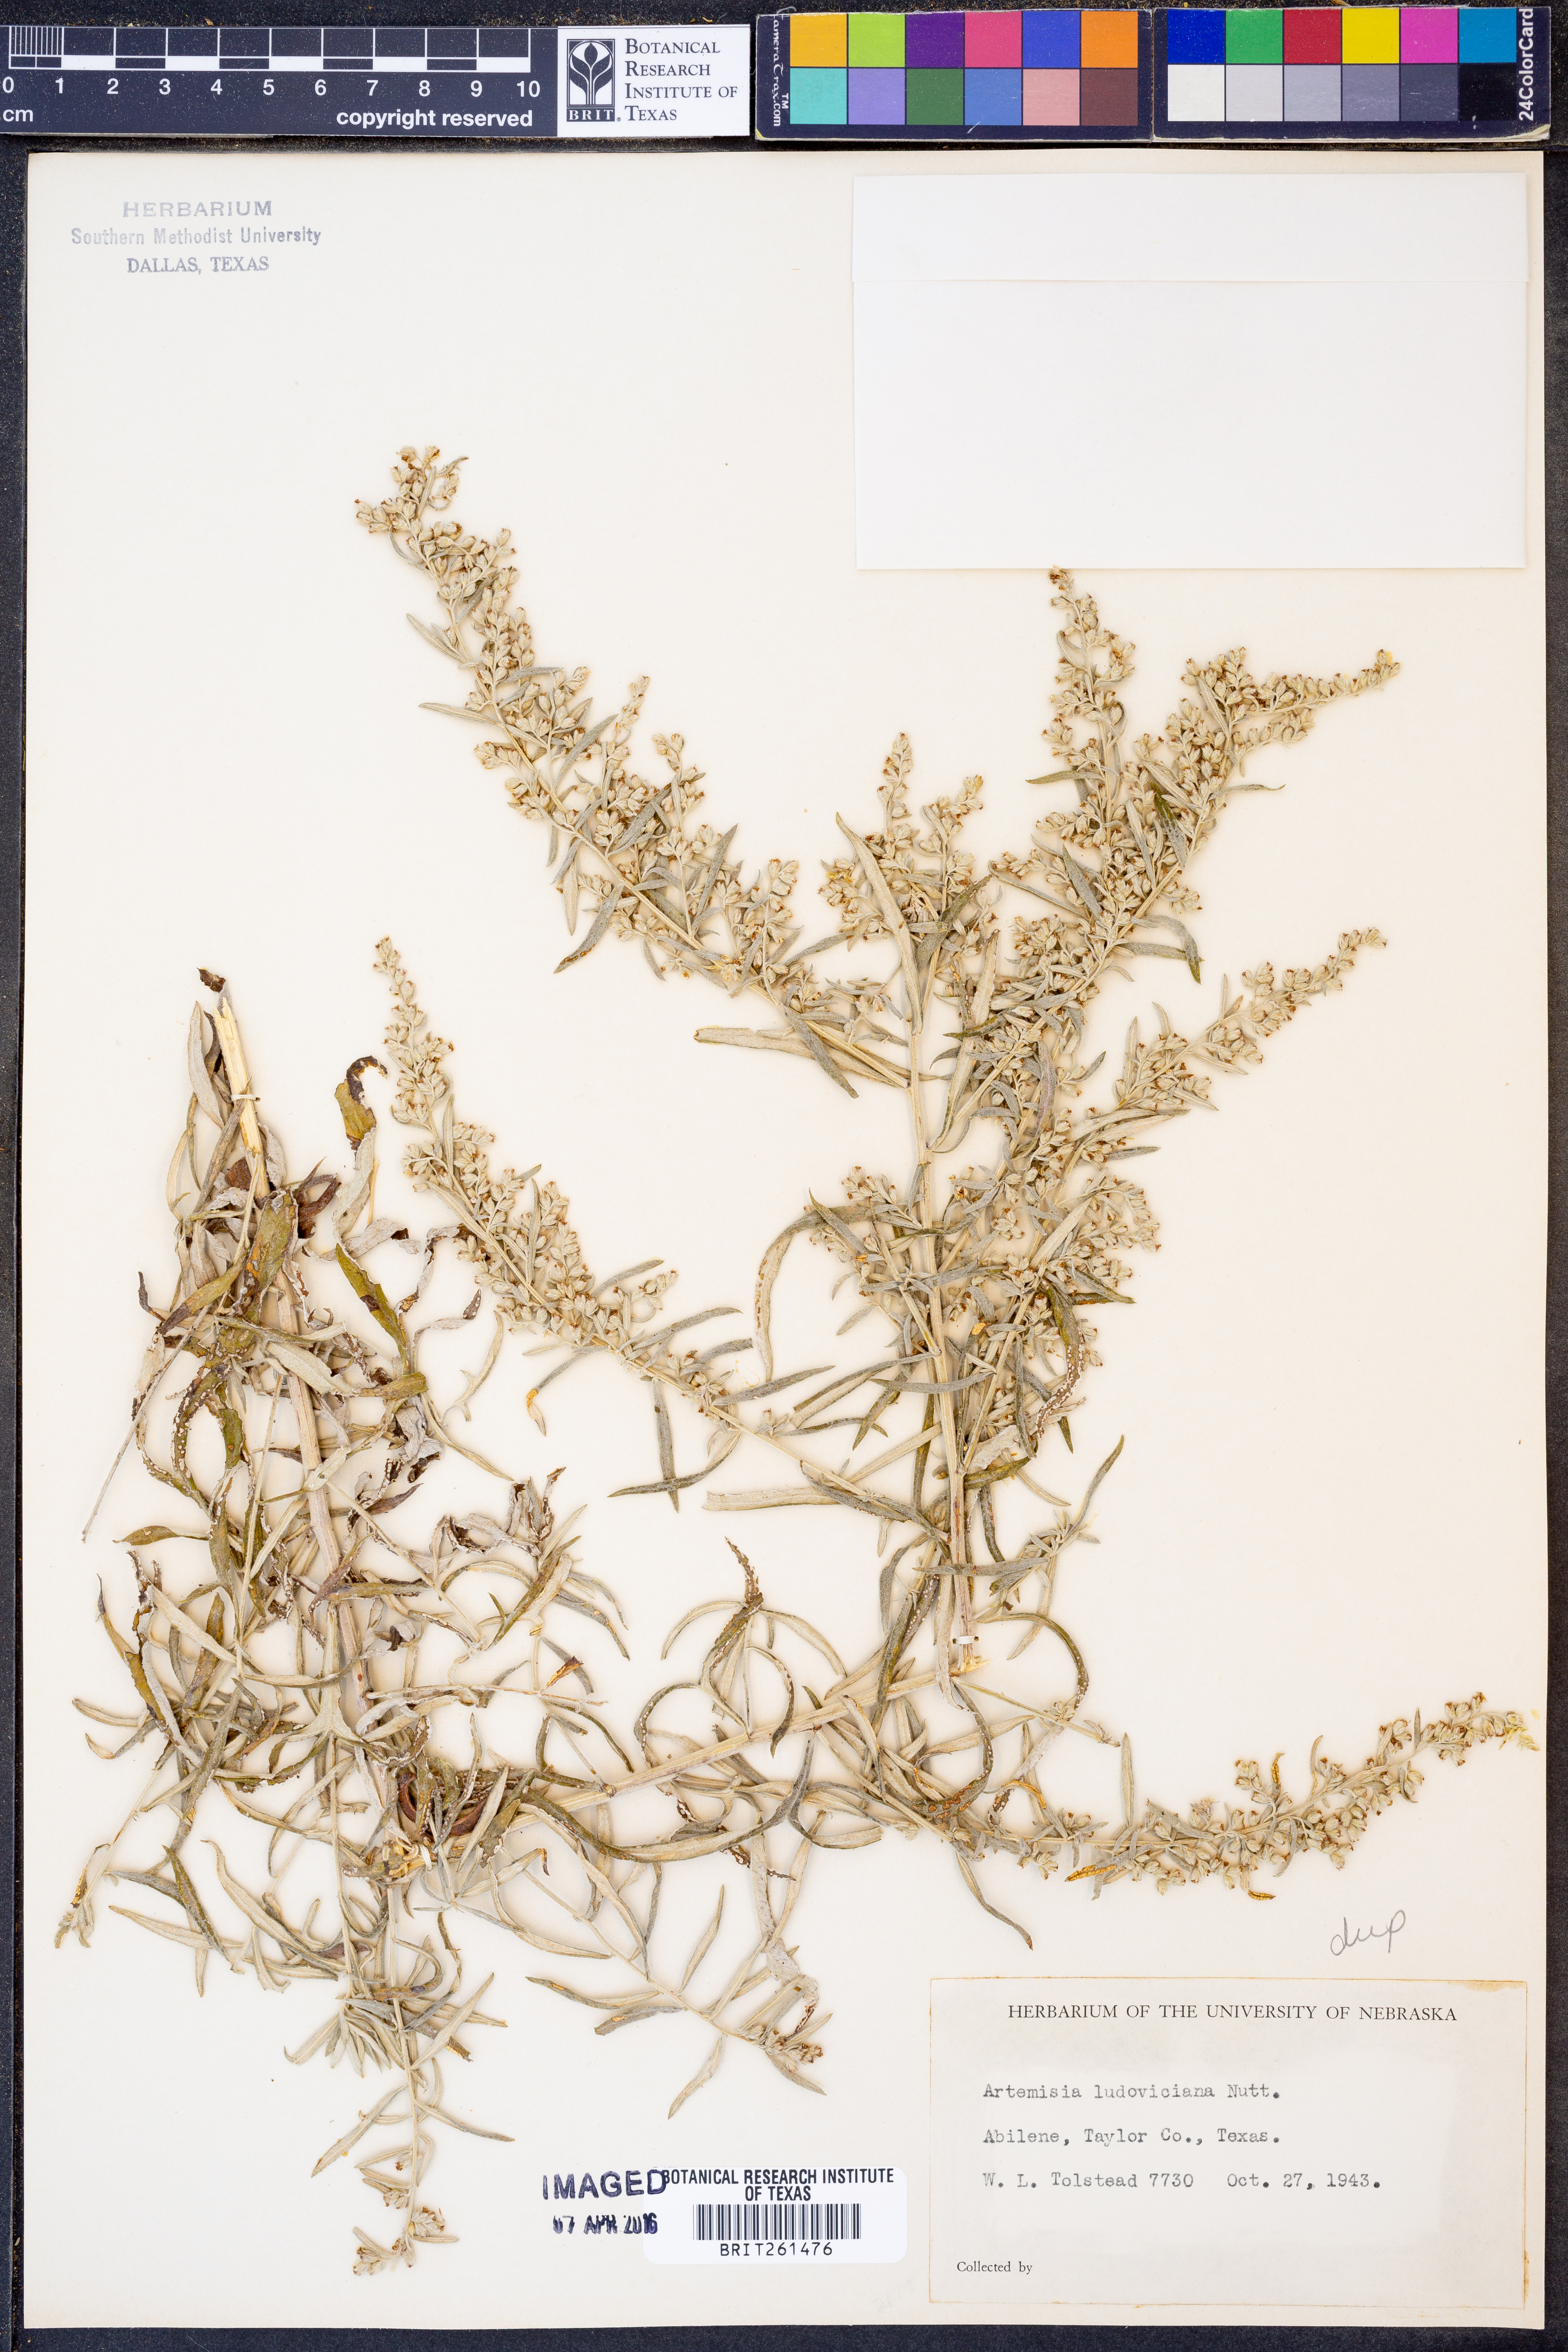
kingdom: Plantae
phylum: Tracheophyta
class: Magnoliopsida
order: Asterales
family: Asteraceae
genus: Artemisia
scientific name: Artemisia ludoviciana
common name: Western mugwort
